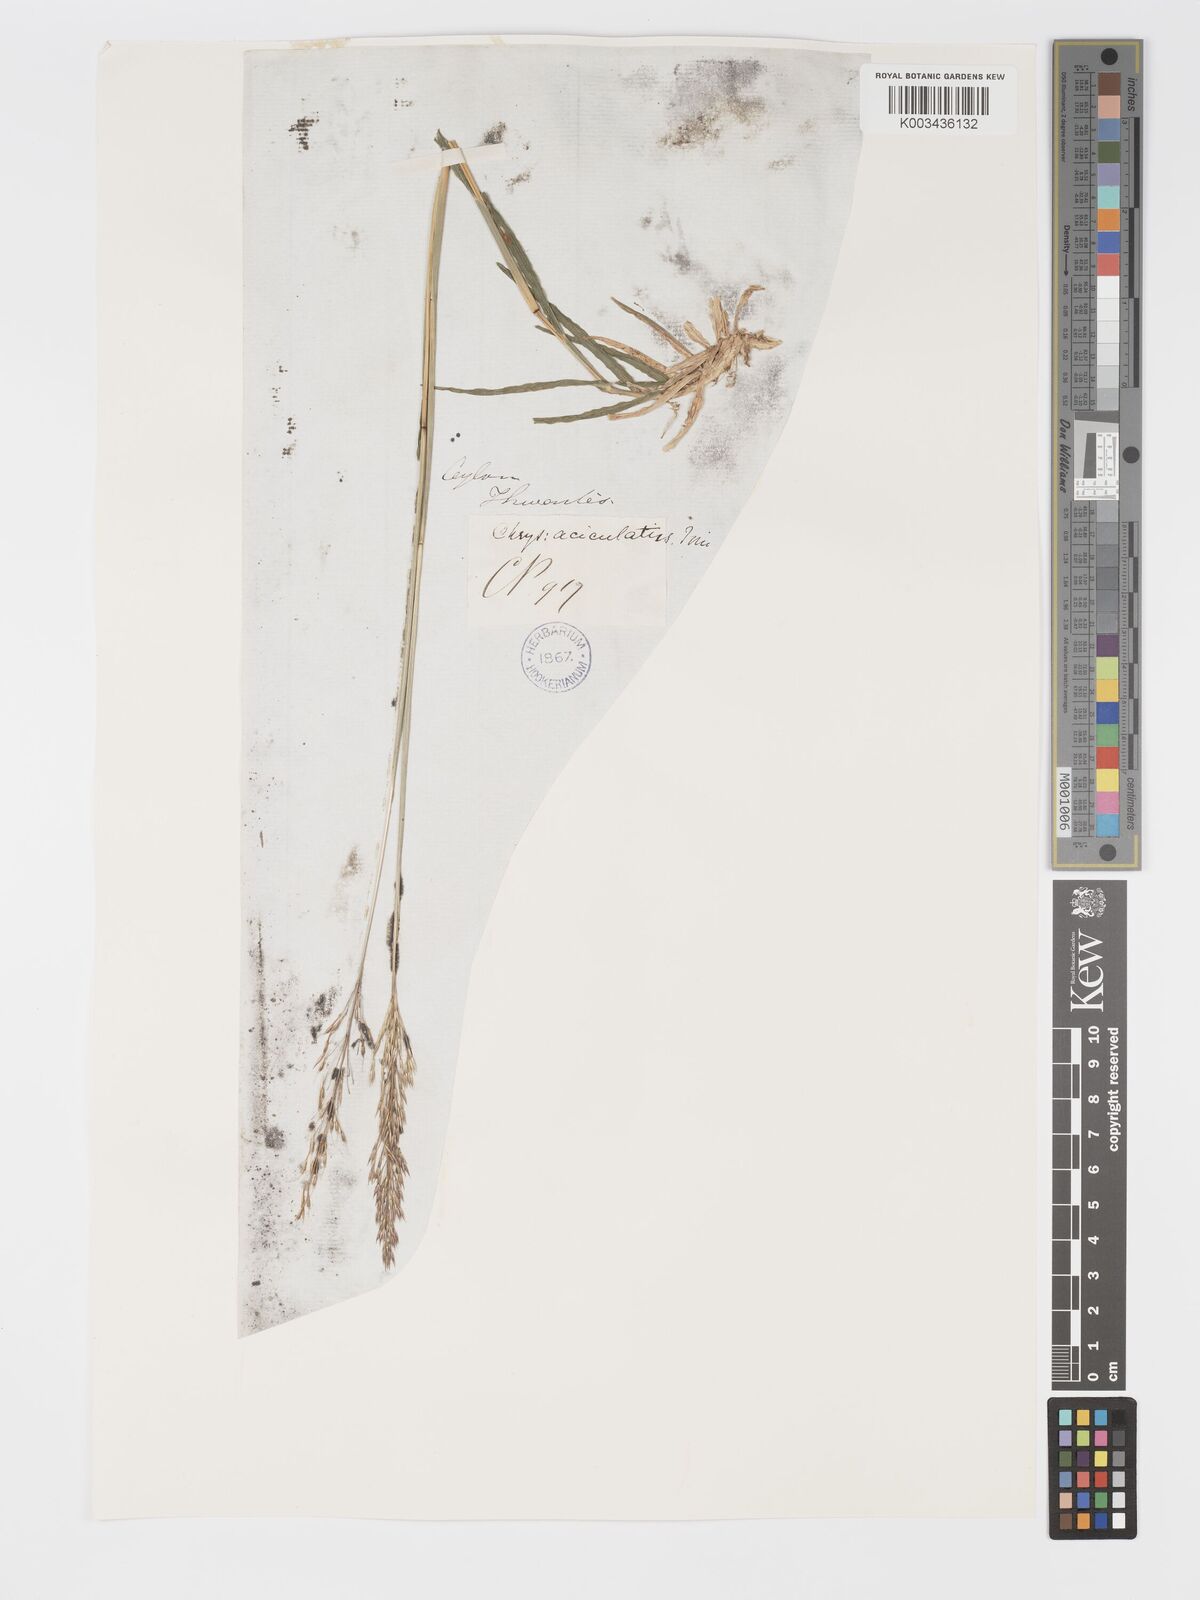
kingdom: Plantae
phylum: Tracheophyta
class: Liliopsida
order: Poales
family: Poaceae
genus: Chrysopogon
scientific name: Chrysopogon aciculatus
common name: Pilipiliula
